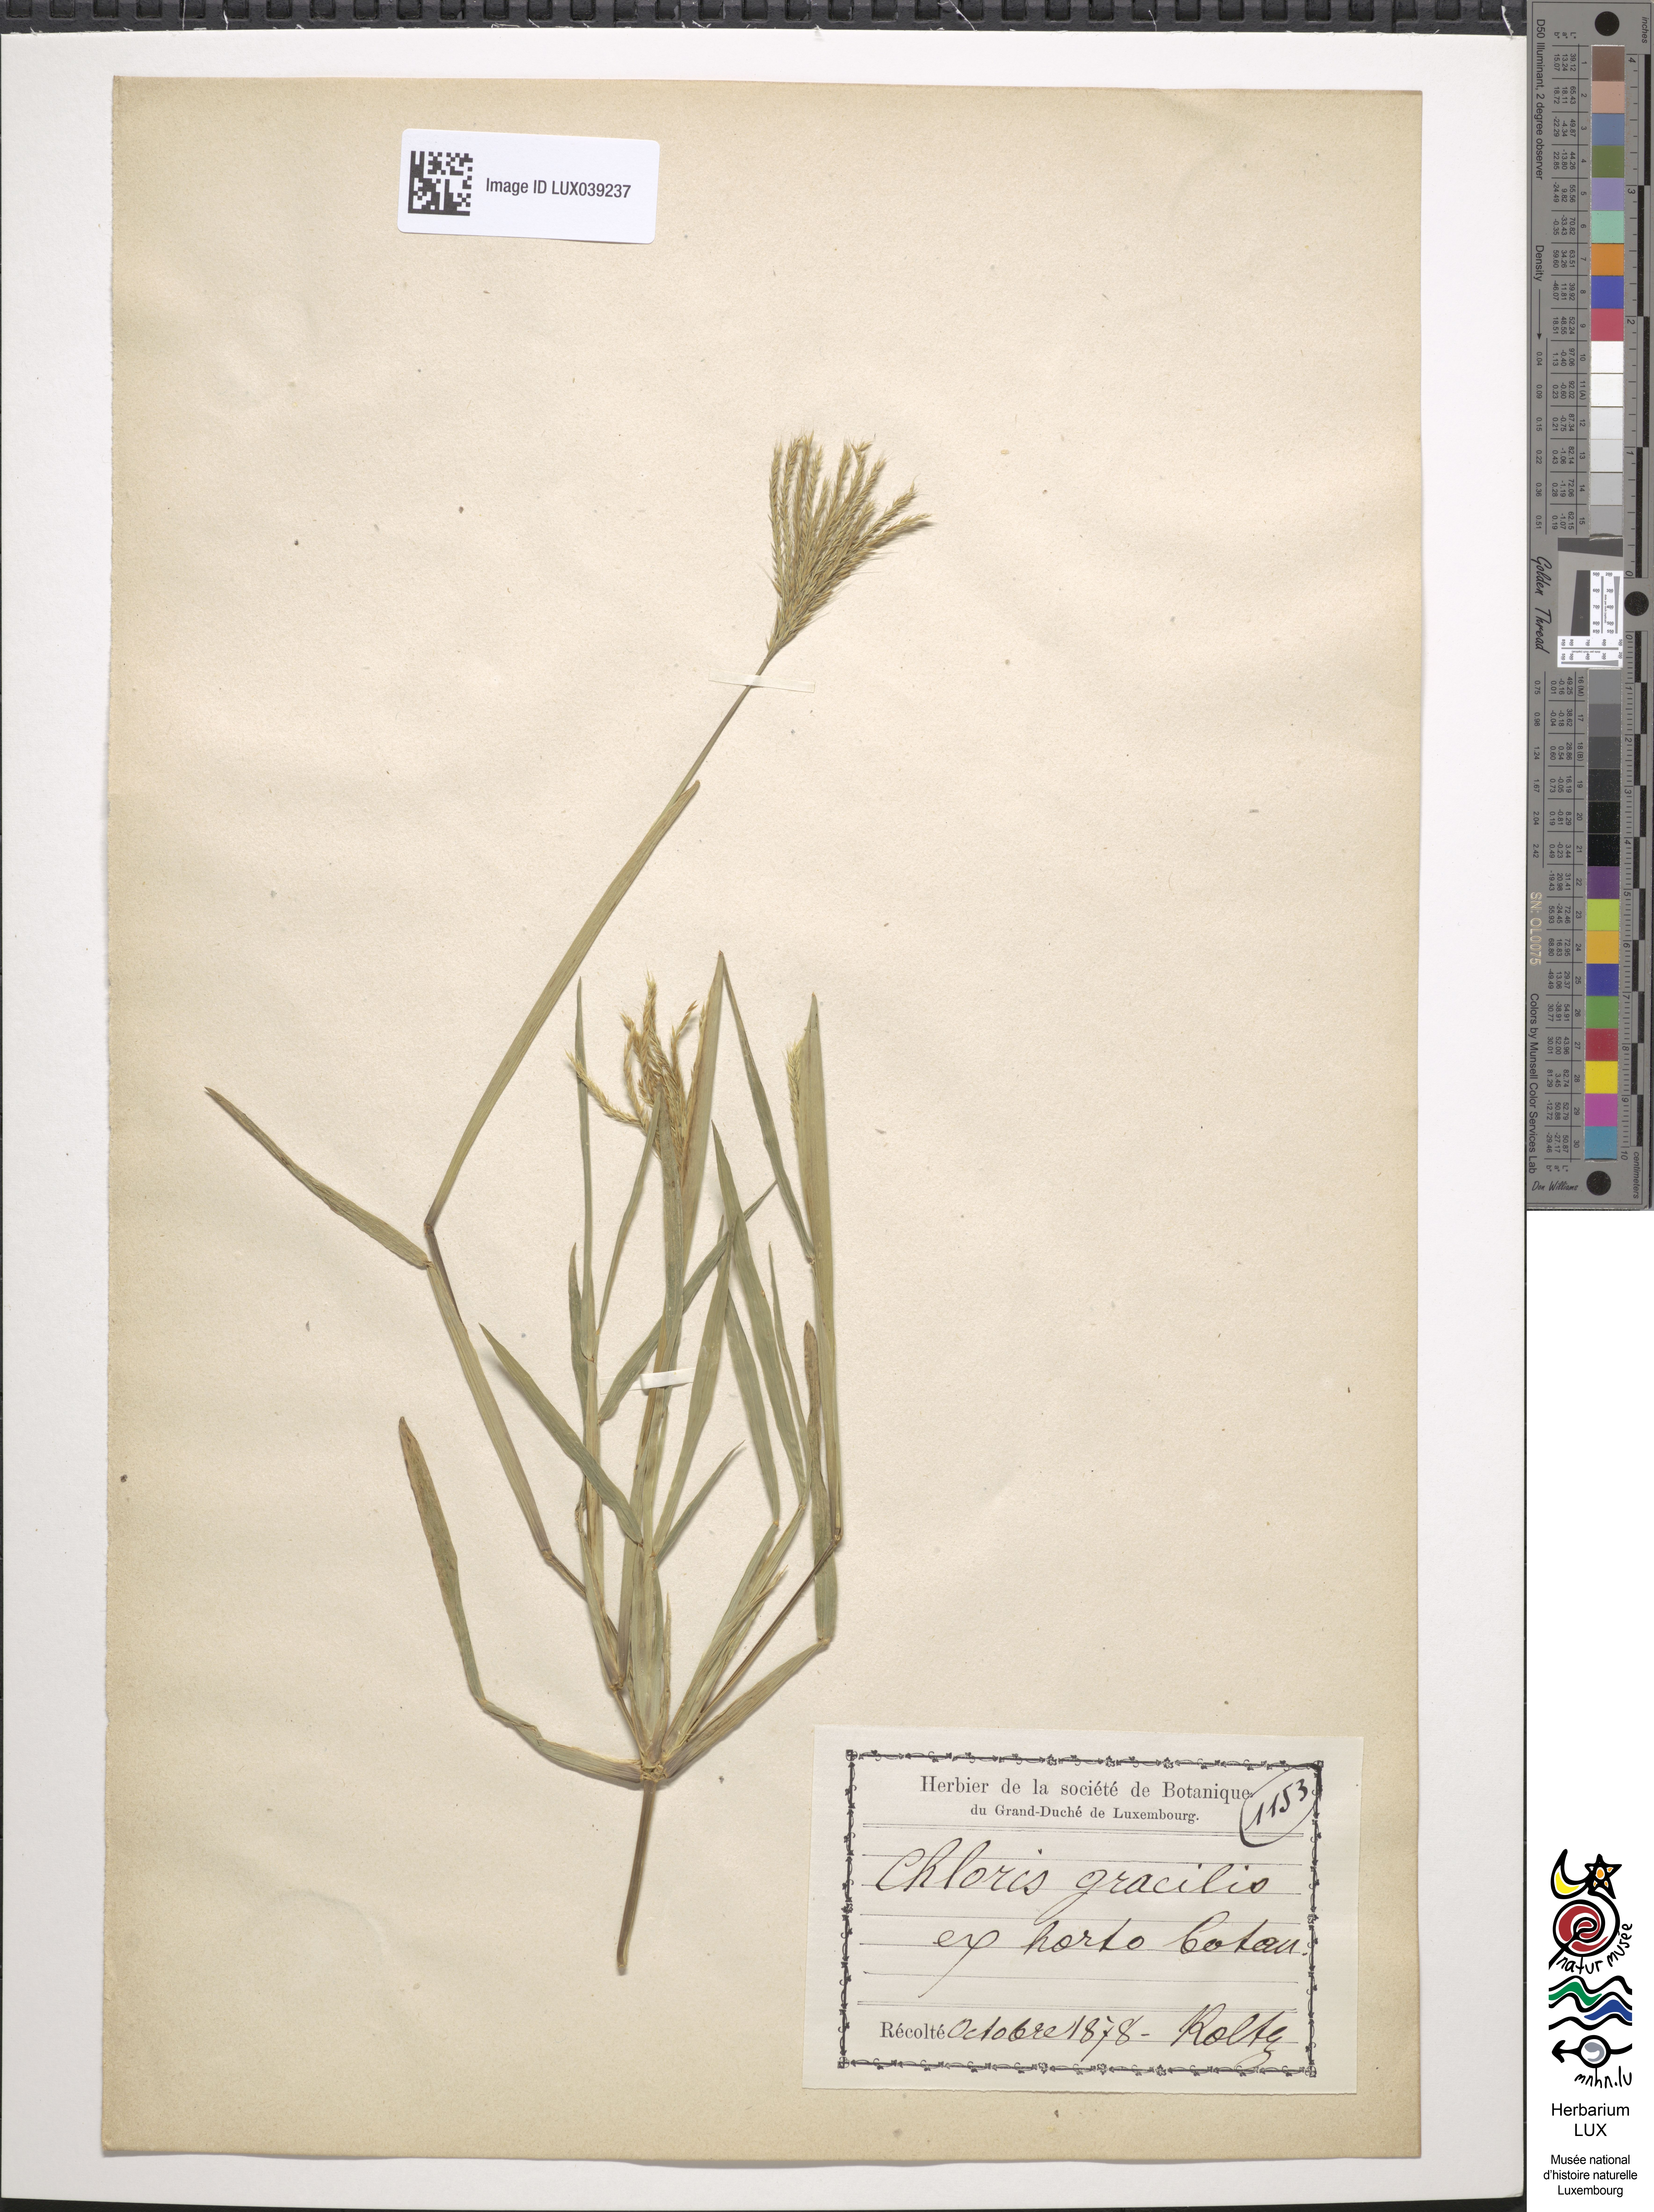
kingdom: Animalia
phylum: Chordata
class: Aves
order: Passeriformes
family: Fringillidae
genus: Chloris
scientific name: Chloris
